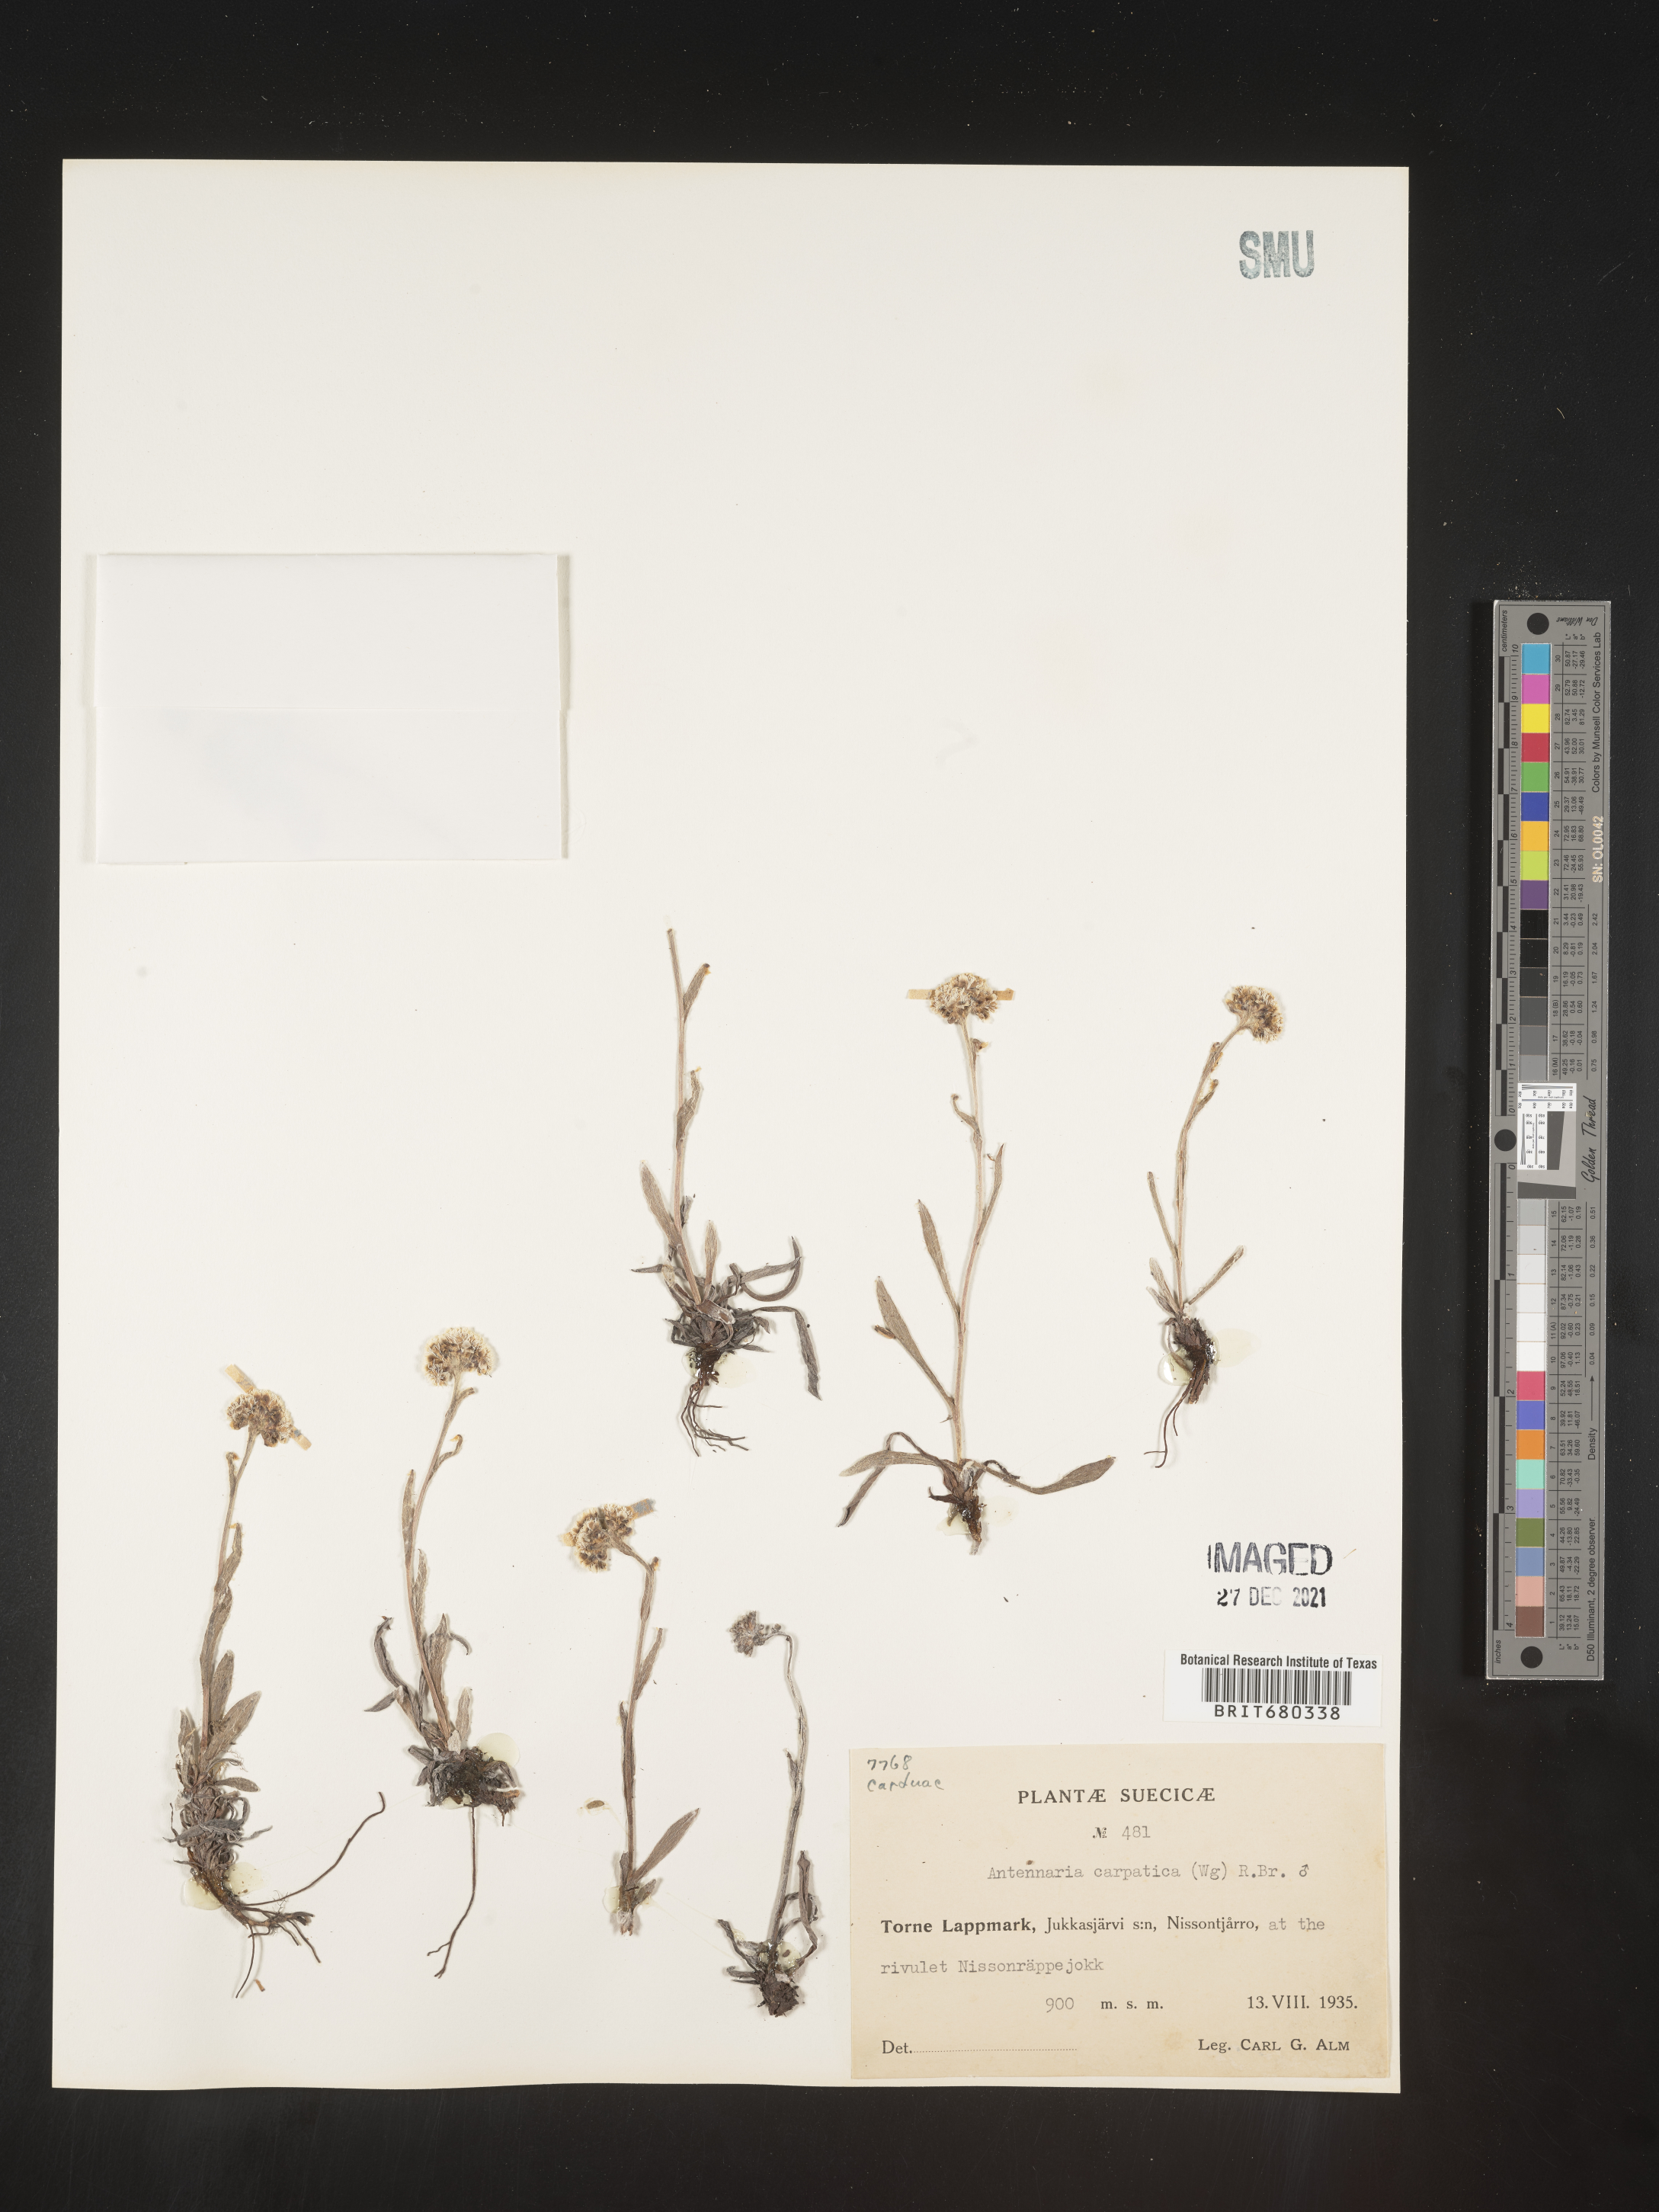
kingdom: Plantae
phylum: Tracheophyta
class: Magnoliopsida
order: Asterales
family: Asteraceae
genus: Antennaria
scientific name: Antennaria
